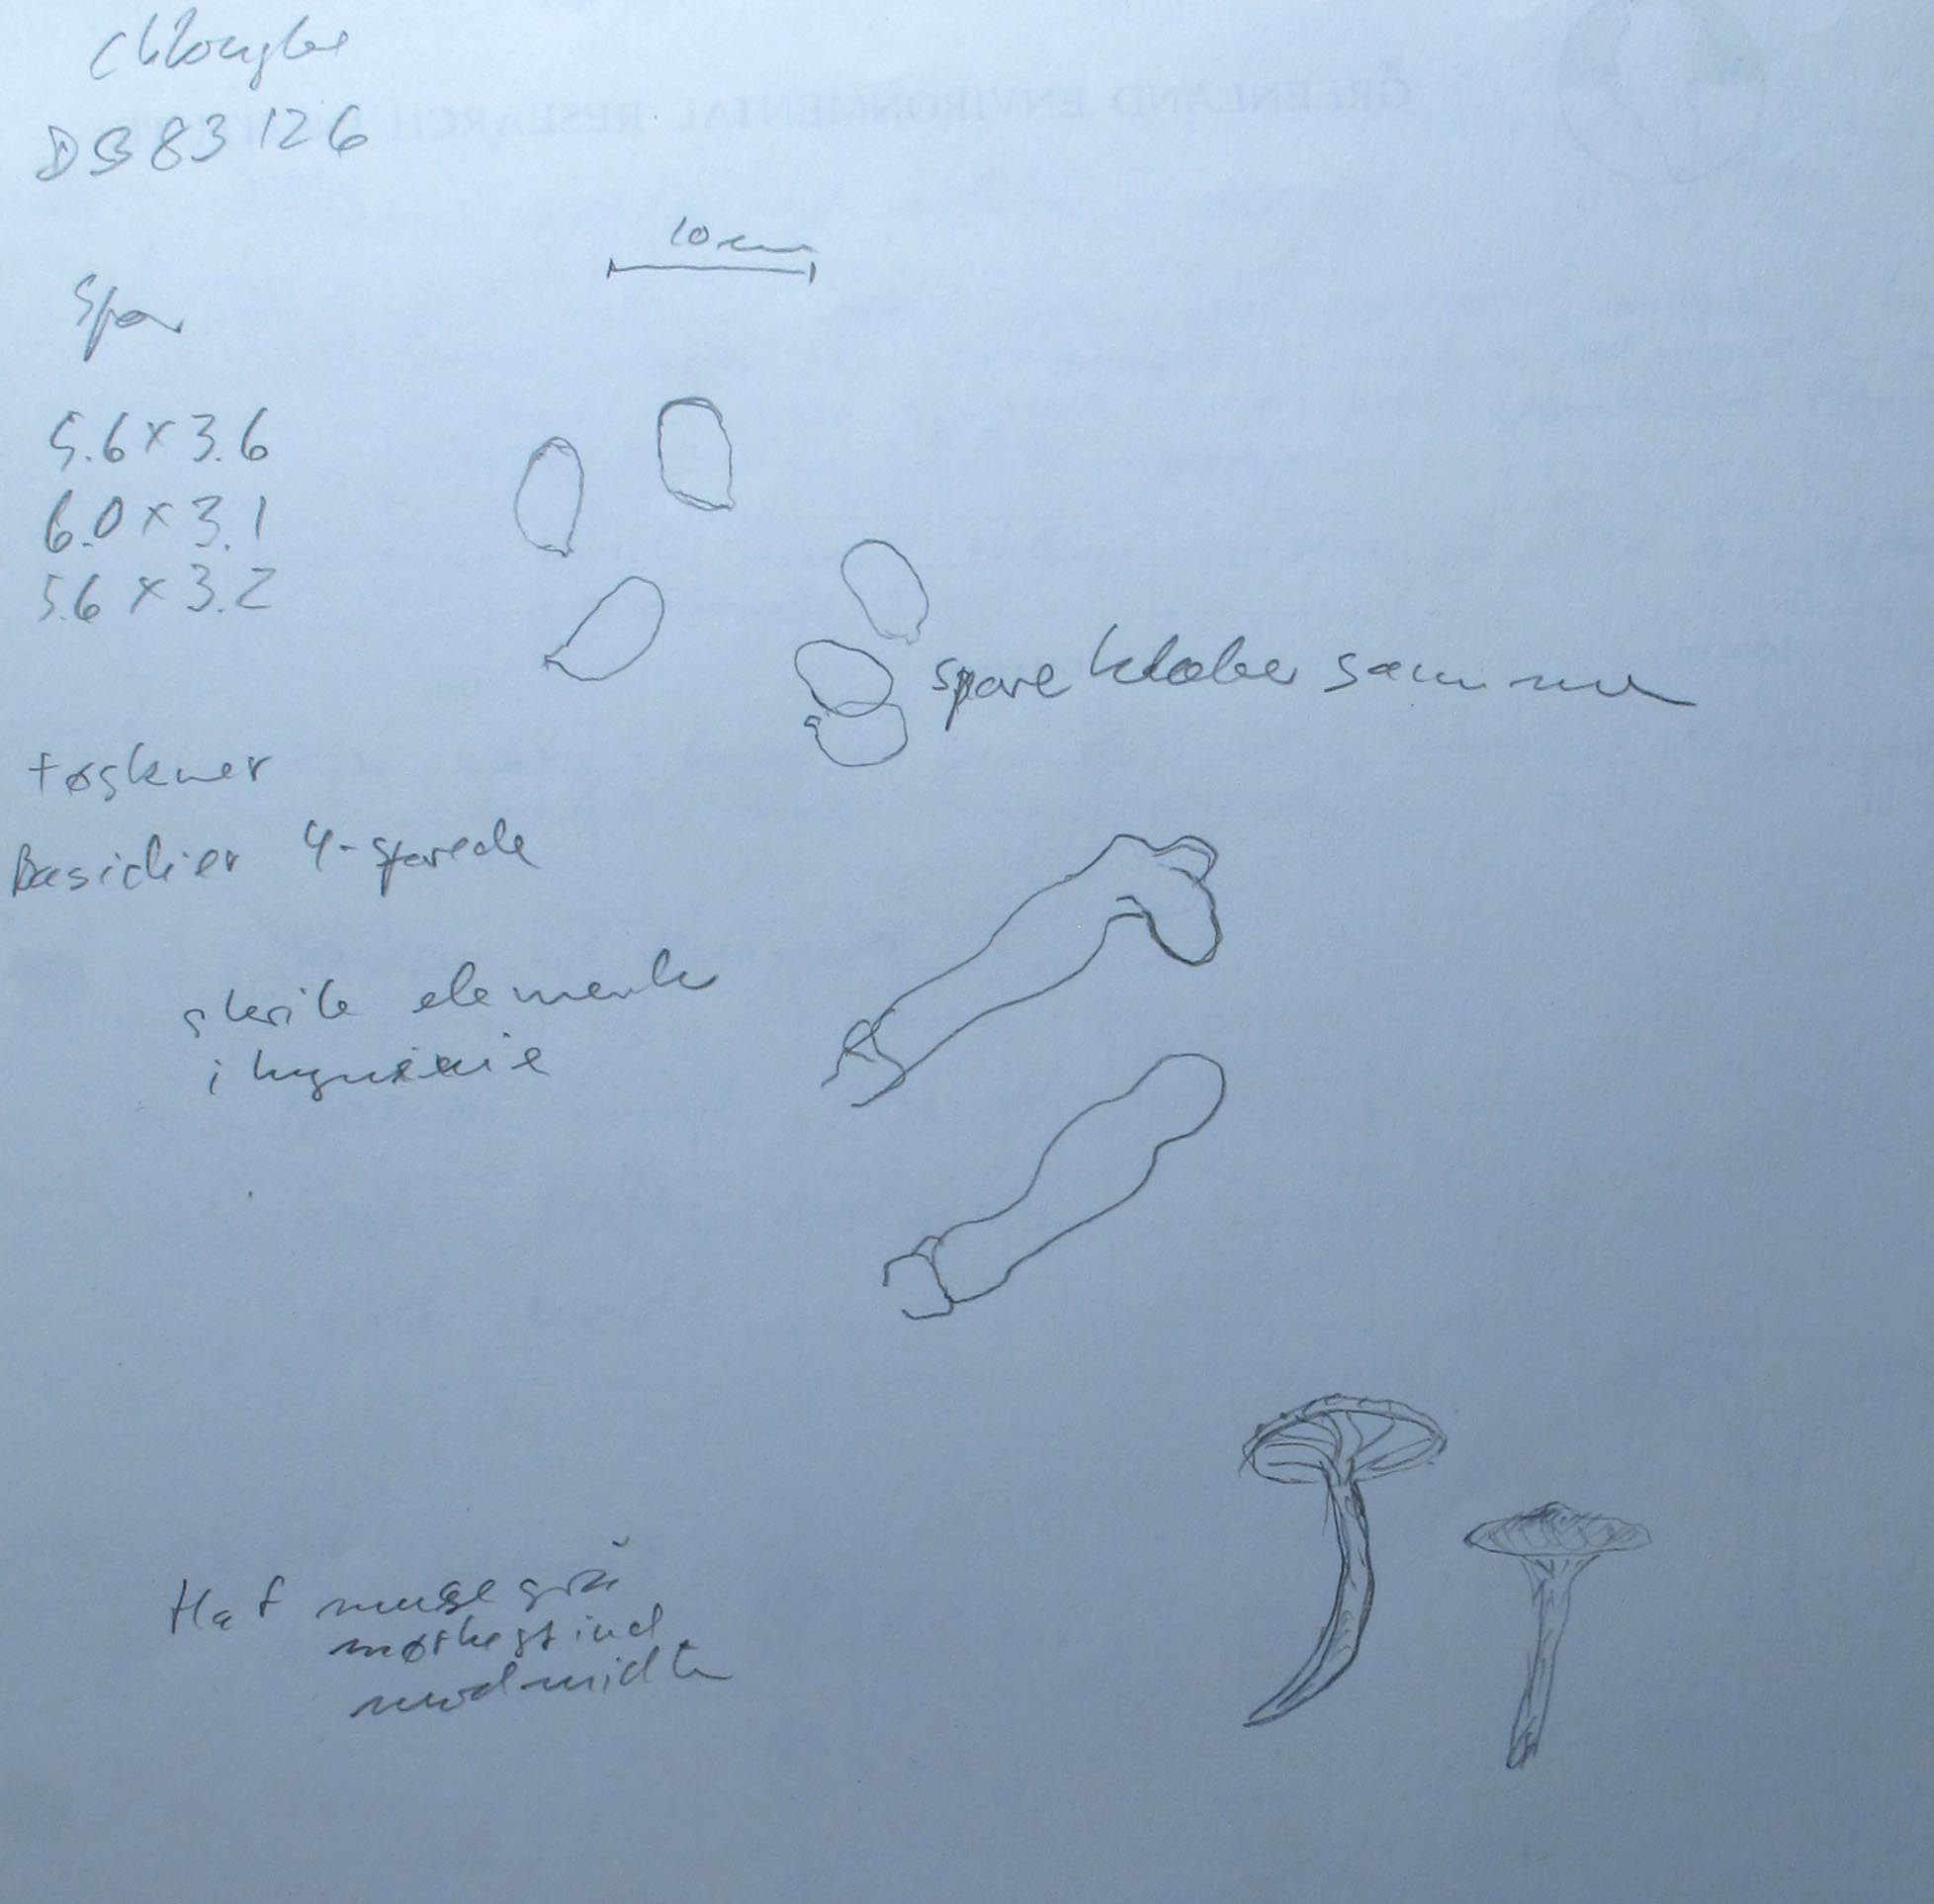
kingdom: Fungi
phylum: Basidiomycota
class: Agaricomycetes
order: Agaricales
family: Hygrophoraceae
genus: Spodocybe
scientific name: Spodocybe trulliformis
